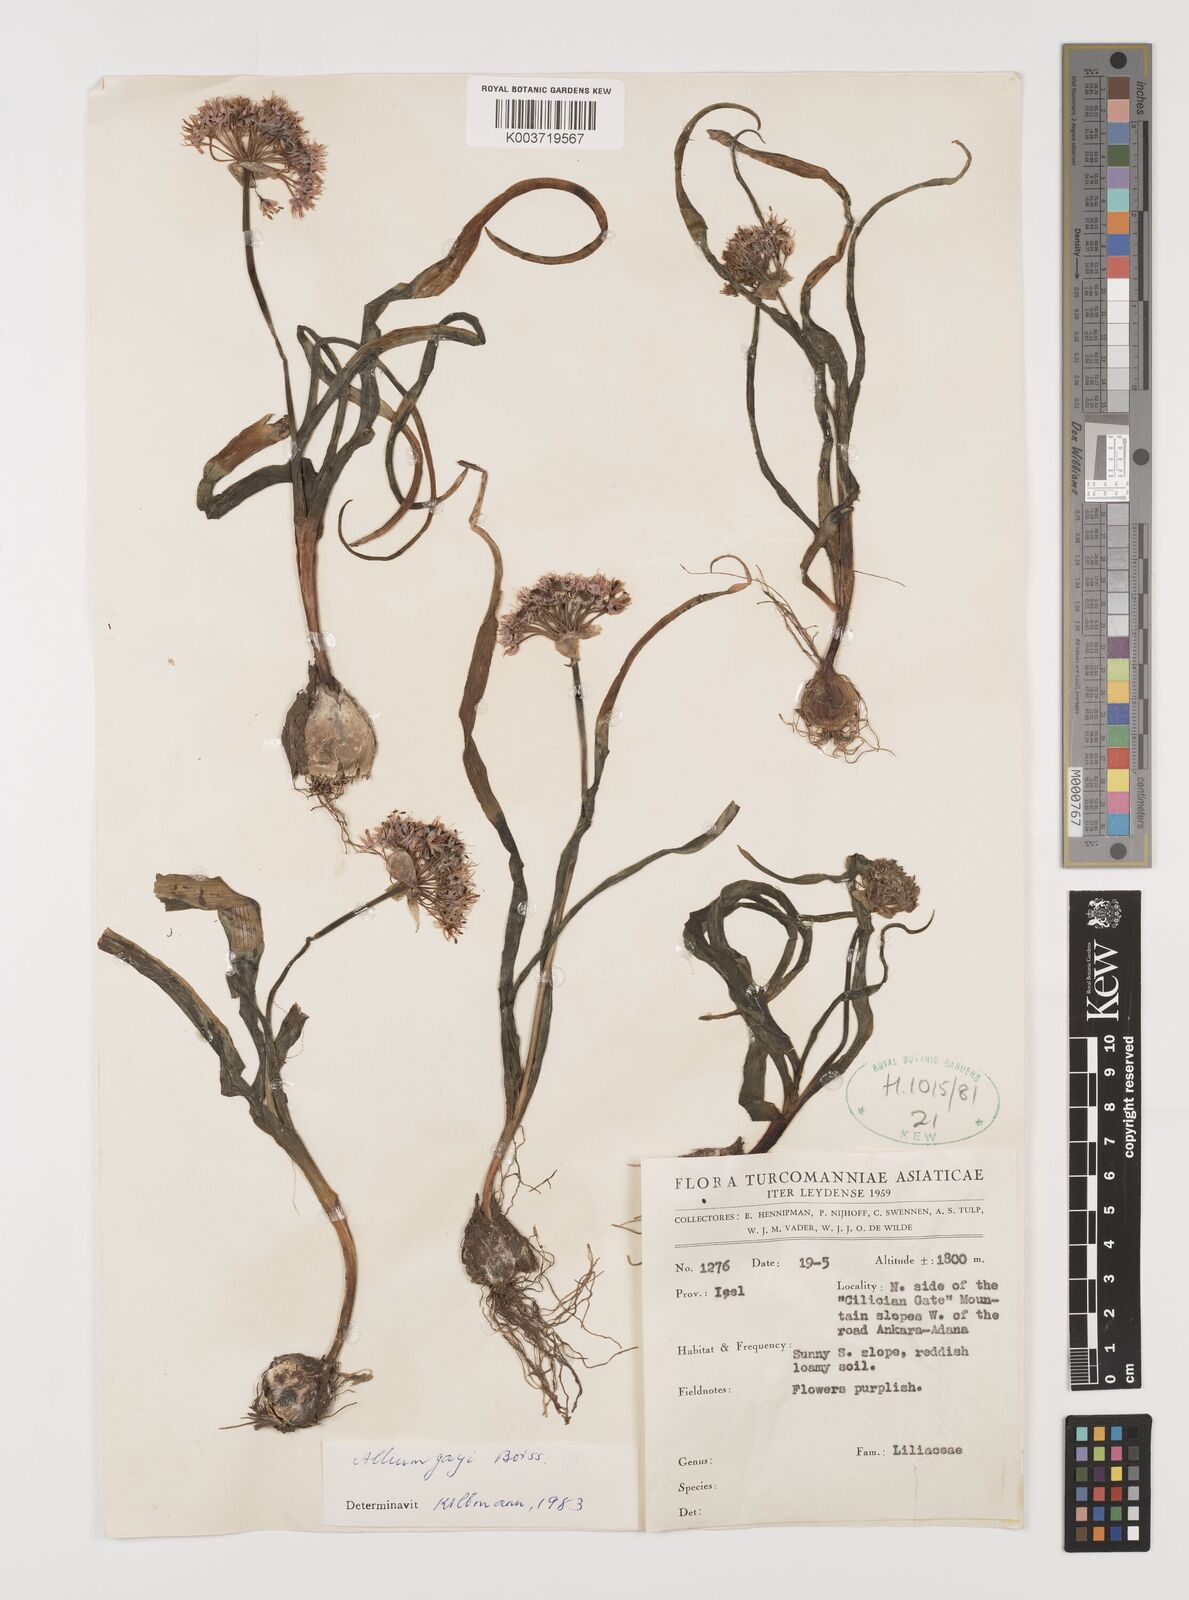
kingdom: Plantae
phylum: Tracheophyta
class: Liliopsida
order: Asparagales
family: Amaryllidaceae
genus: Allium
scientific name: Allium orientale
